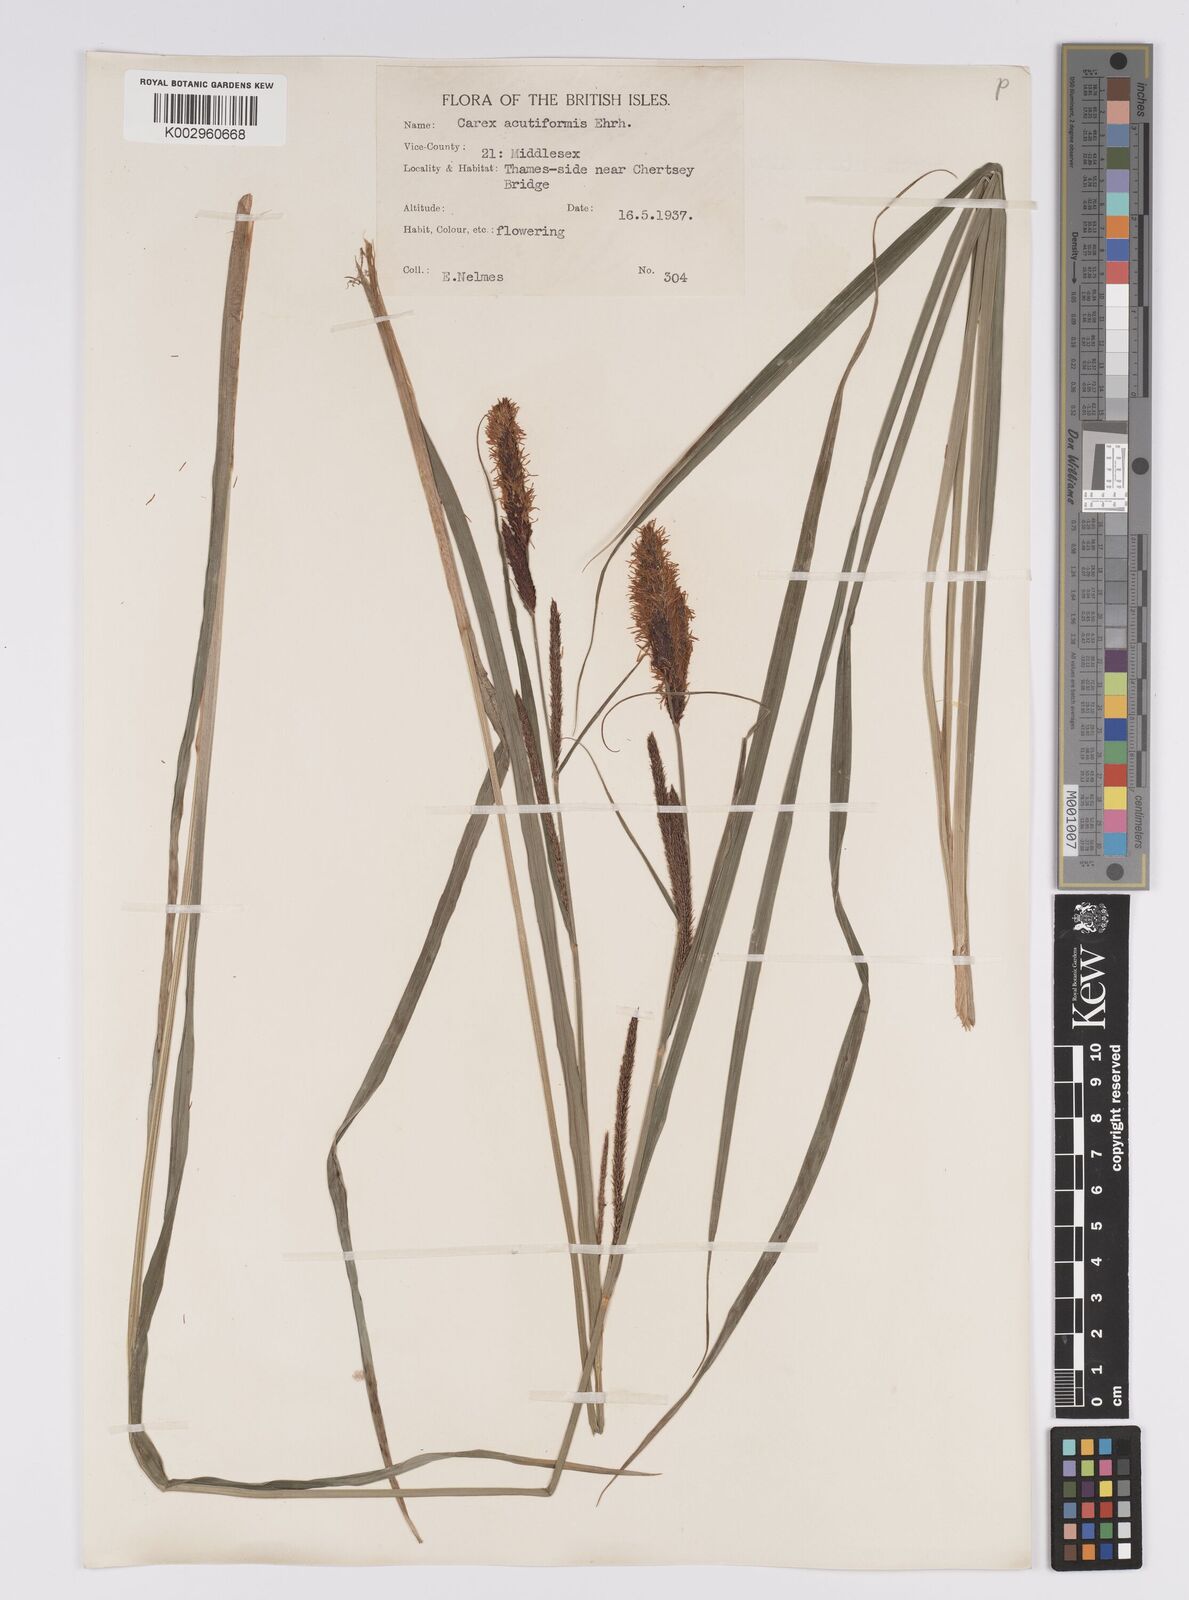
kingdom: Plantae
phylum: Tracheophyta
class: Liliopsida
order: Poales
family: Cyperaceae
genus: Carex
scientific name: Carex acutiformis
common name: Lesser pond-sedge
